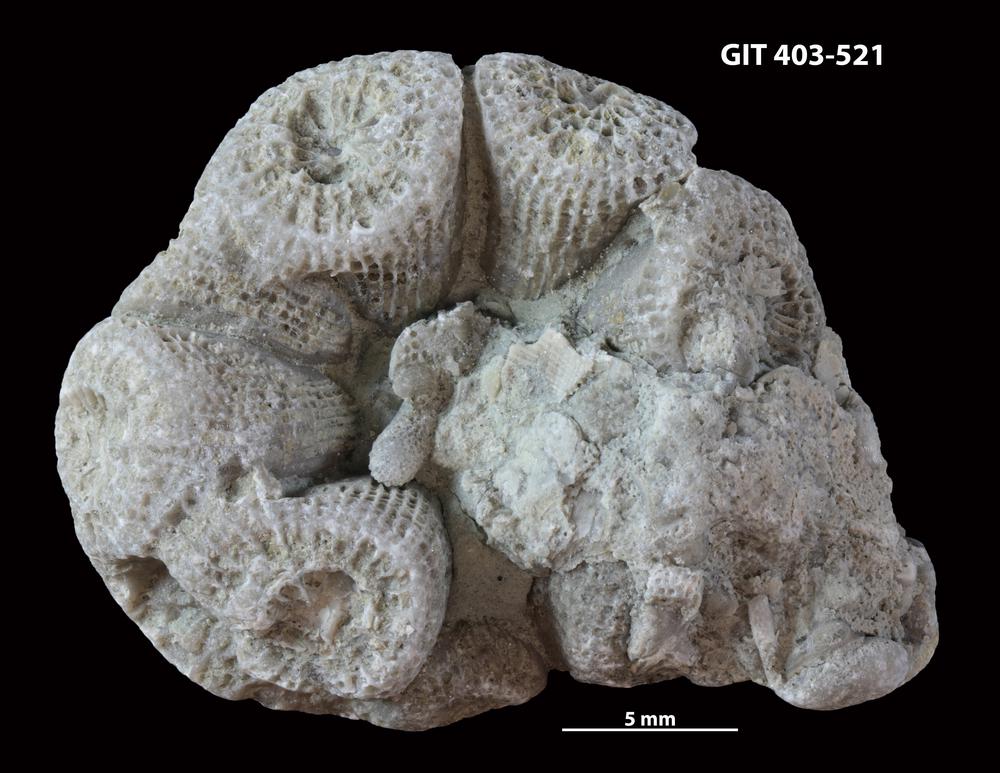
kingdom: Animalia
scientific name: Animalia
